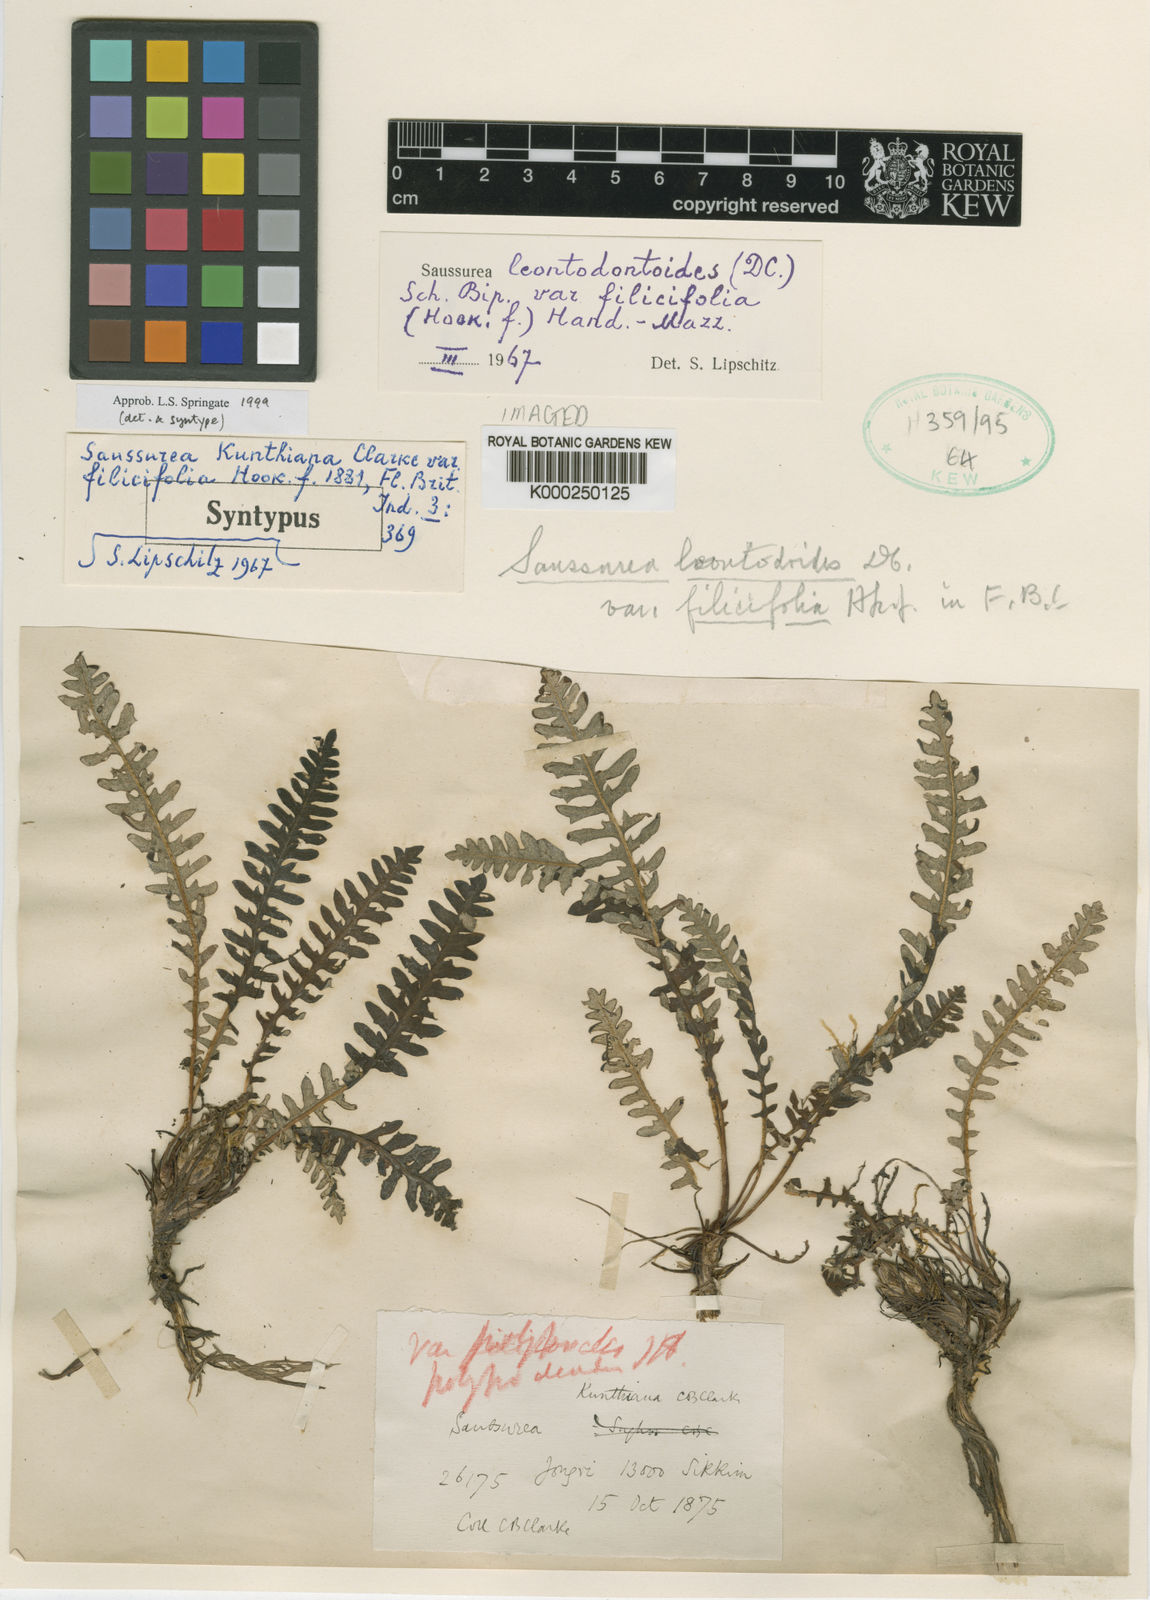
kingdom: Plantae
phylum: Tracheophyta
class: Magnoliopsida
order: Asterales
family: Asteraceae
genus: Saussurea
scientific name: Saussurea
